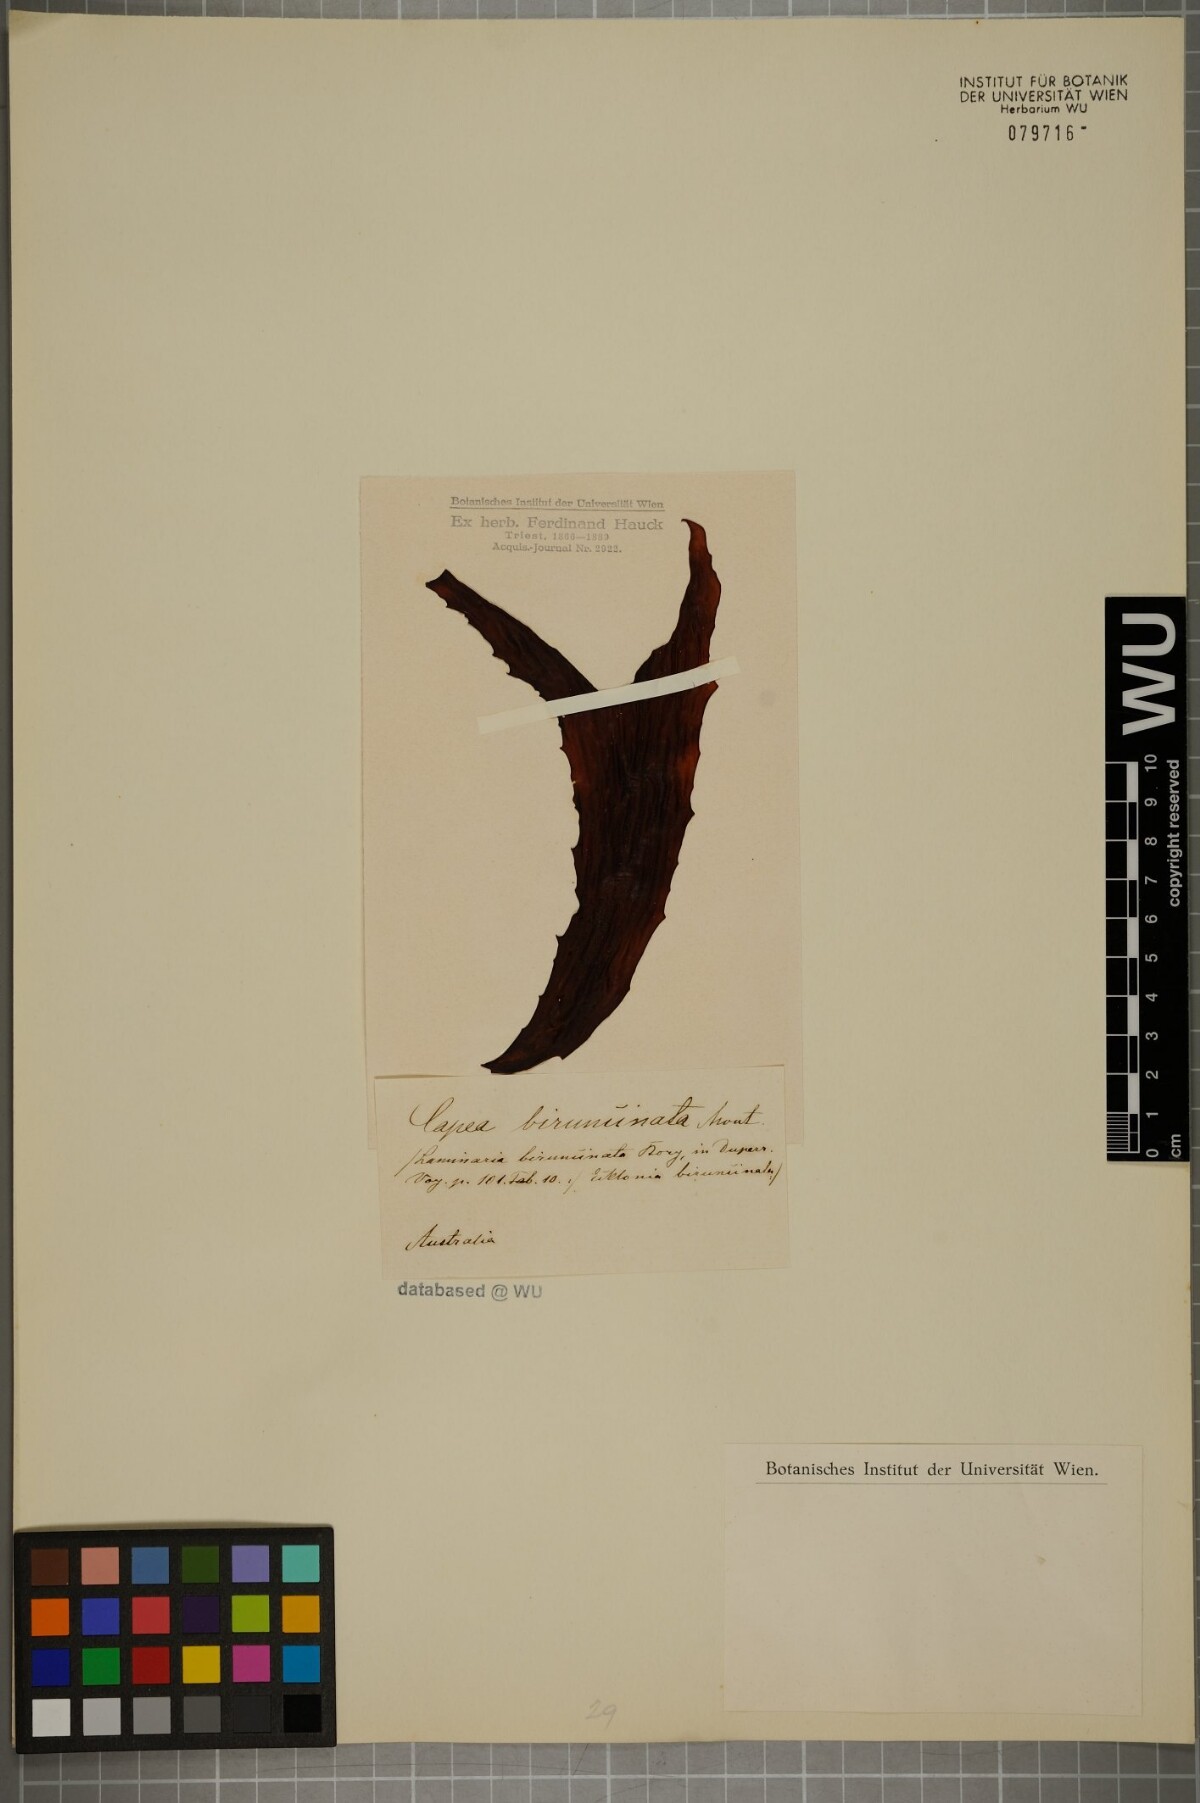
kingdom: Chromista
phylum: Ochrophyta
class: Phaeophyceae
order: Laminariales
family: Laminariaceae
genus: Laminaria
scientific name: Laminaria
